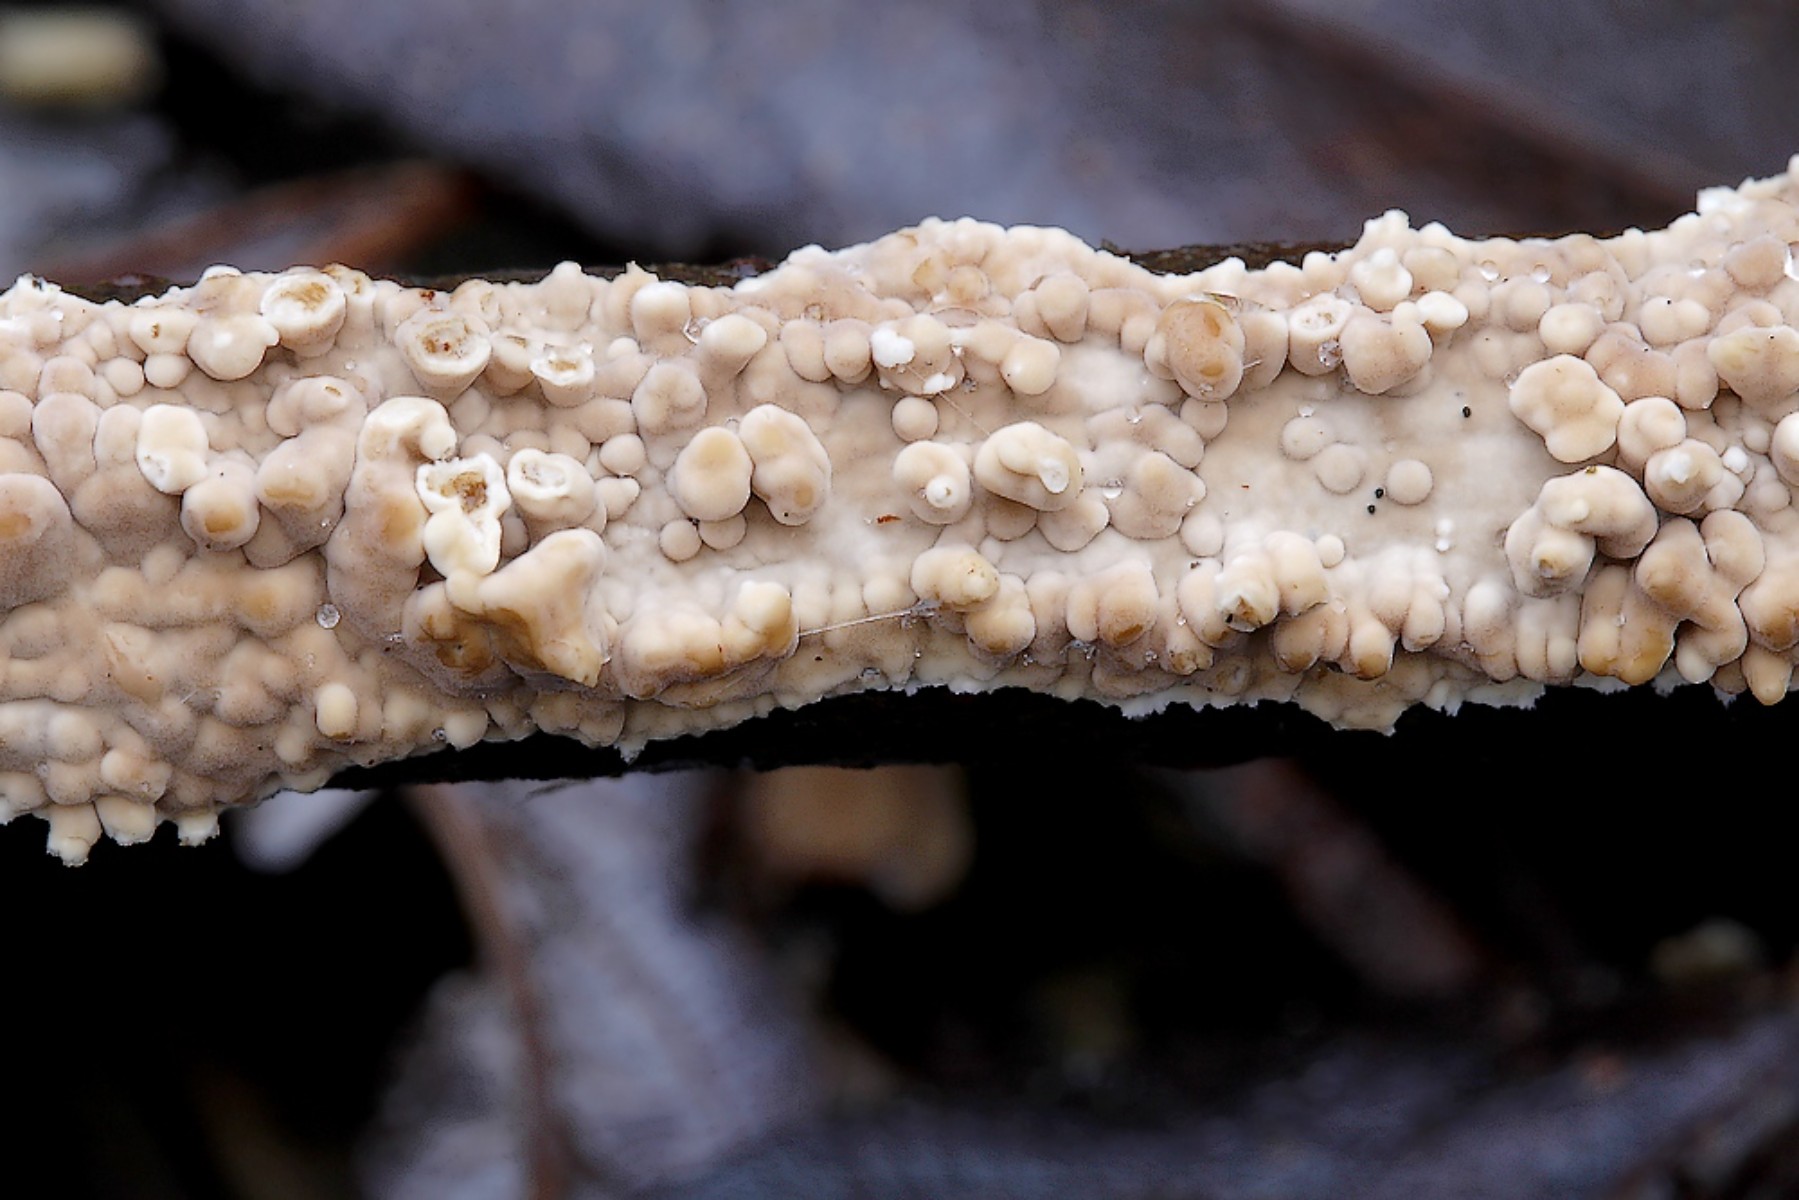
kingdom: Fungi
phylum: Basidiomycota
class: Agaricomycetes
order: Agaricales
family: Physalacriaceae
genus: Cylindrobasidium
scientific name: Cylindrobasidium evolvens
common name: sprækkehinde
